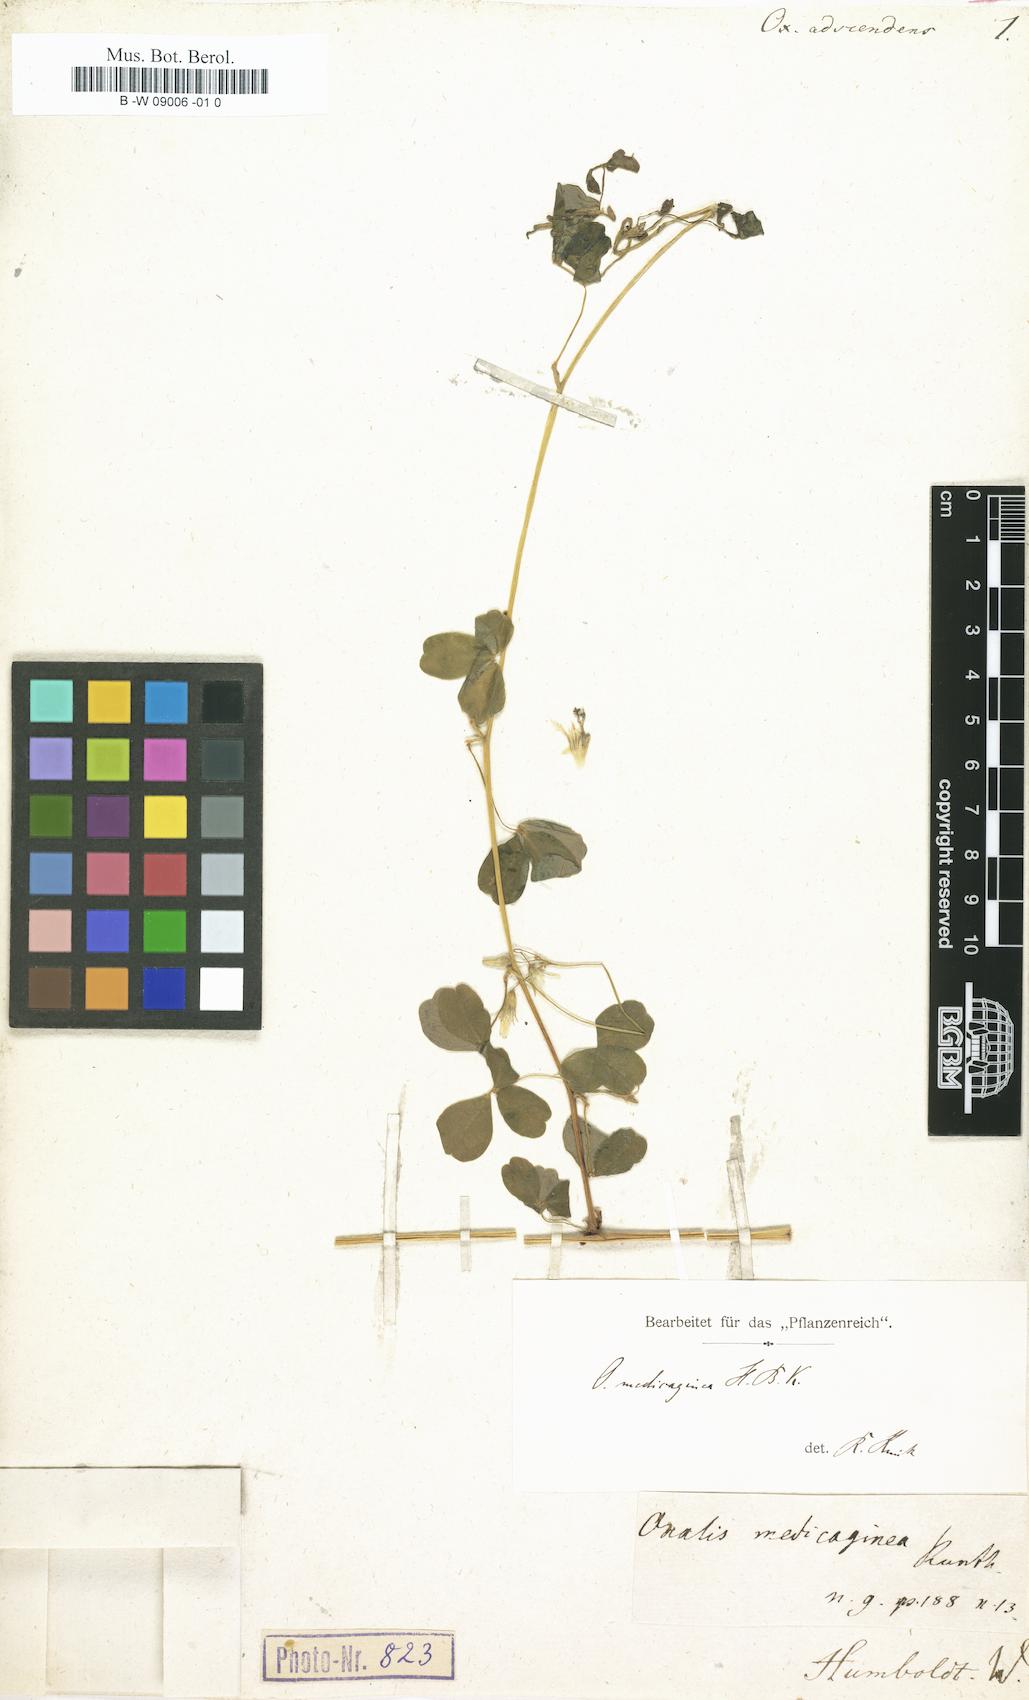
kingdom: Plantae
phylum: Tracheophyta
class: Magnoliopsida
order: Oxalidales
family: Oxalidaceae
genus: Oxalis
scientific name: Oxalis medicaginea
